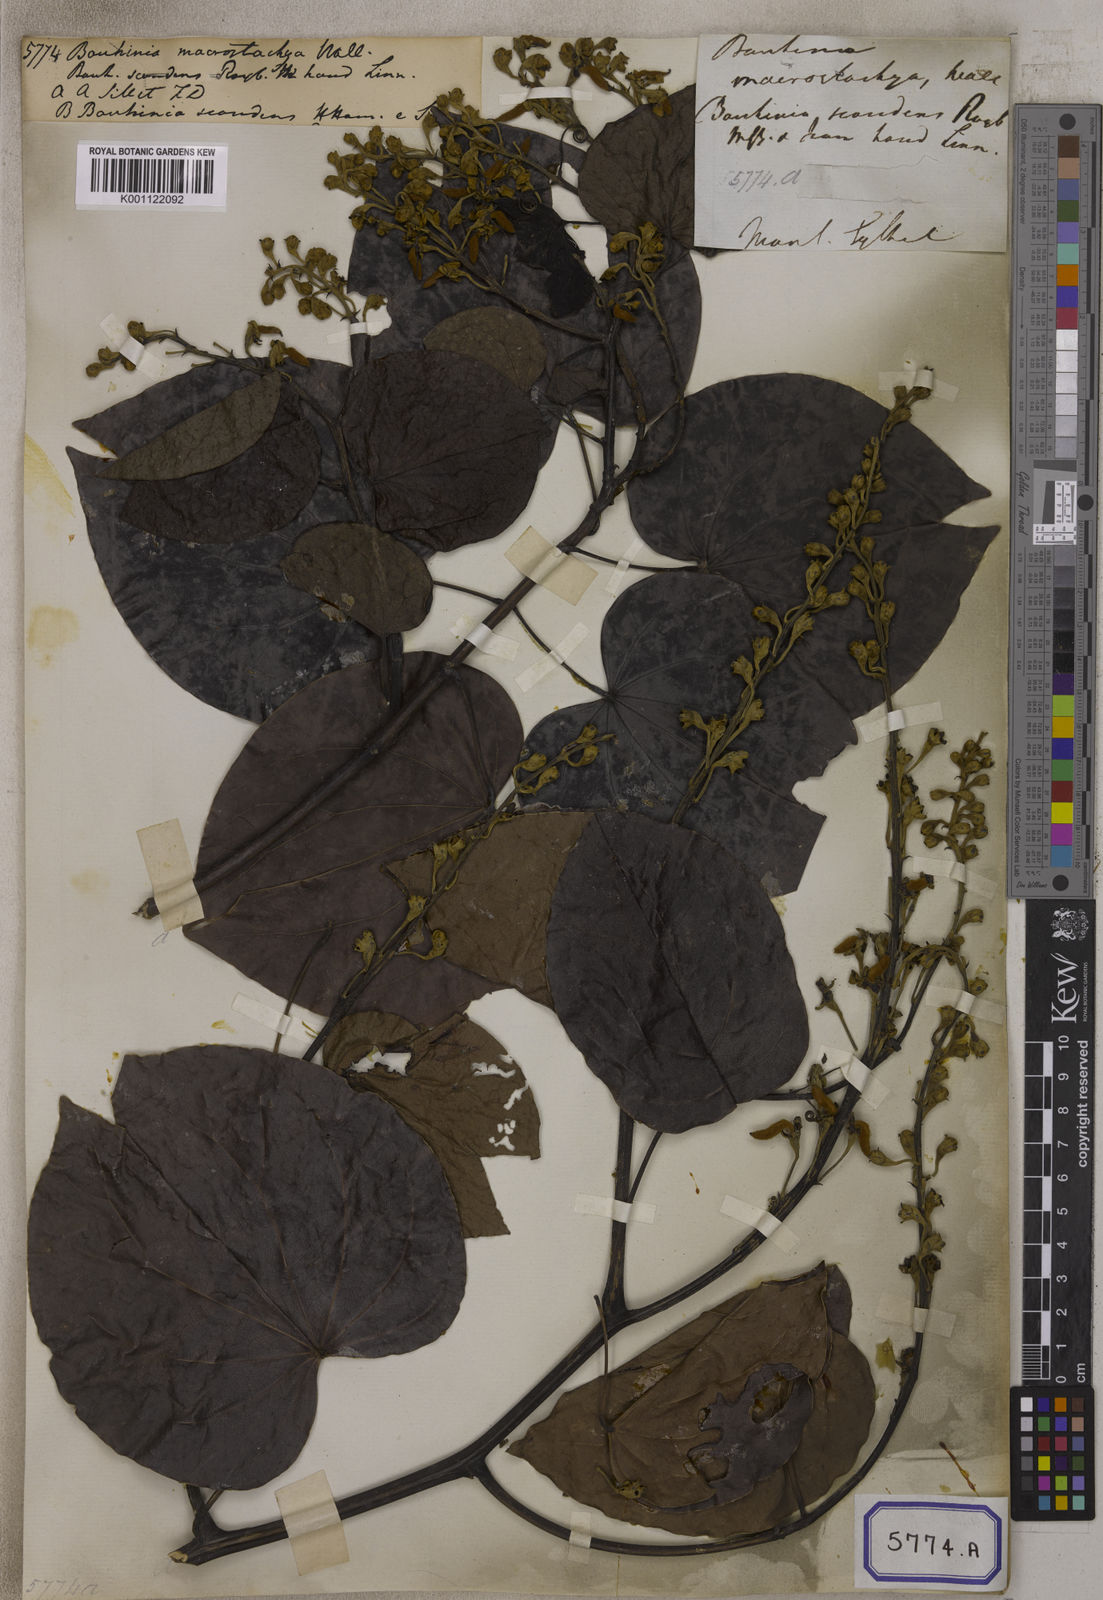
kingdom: Plantae
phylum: Tracheophyta
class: Magnoliopsida
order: Fabales
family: Fabaceae
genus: Bauhinia
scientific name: Bauhinia
